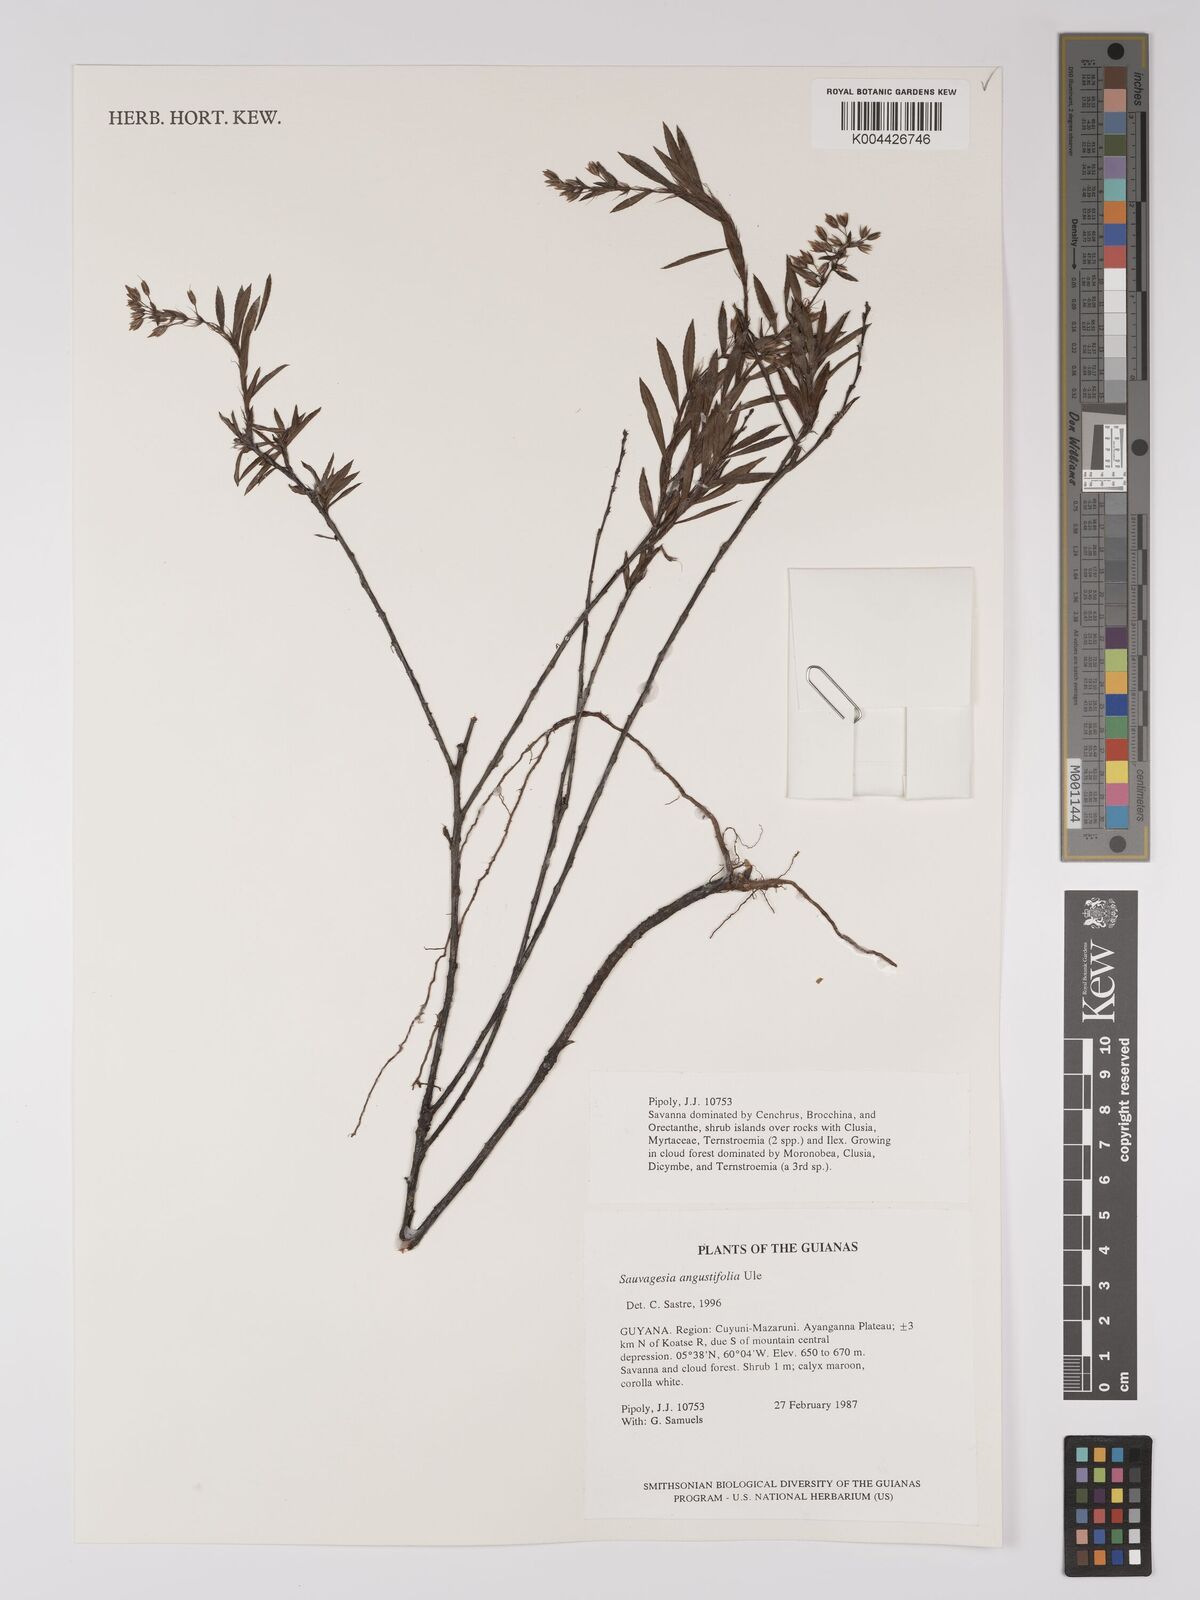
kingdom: Plantae
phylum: Tracheophyta
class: Magnoliopsida
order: Malpighiales
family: Ochnaceae
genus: Sauvagesia
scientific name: Sauvagesia angustifolia
